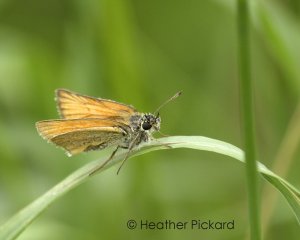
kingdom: Animalia
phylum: Arthropoda
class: Insecta
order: Lepidoptera
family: Hesperiidae
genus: Thymelicus
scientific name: Thymelicus lineola
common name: European Skipper
